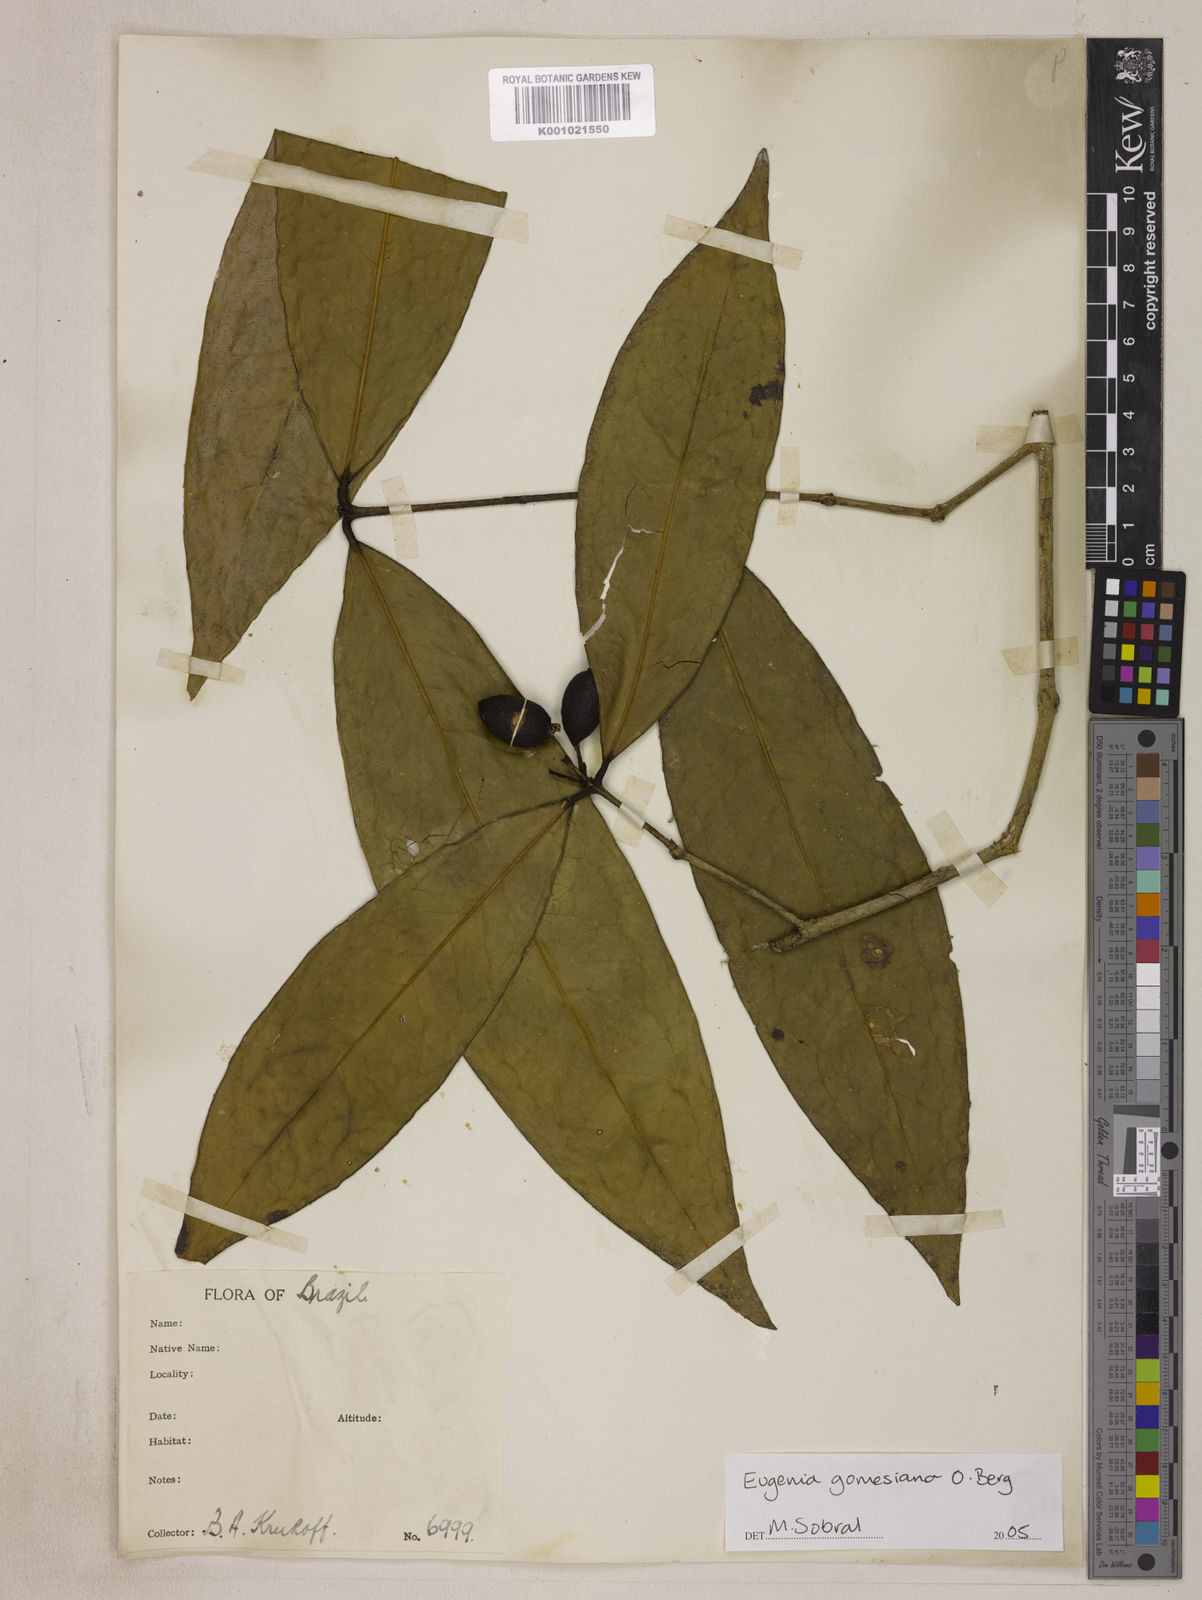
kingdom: Plantae
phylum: Tracheophyta
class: Magnoliopsida
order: Myrtales
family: Myrtaceae
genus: Eugenia
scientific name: Eugenia gomesiana
